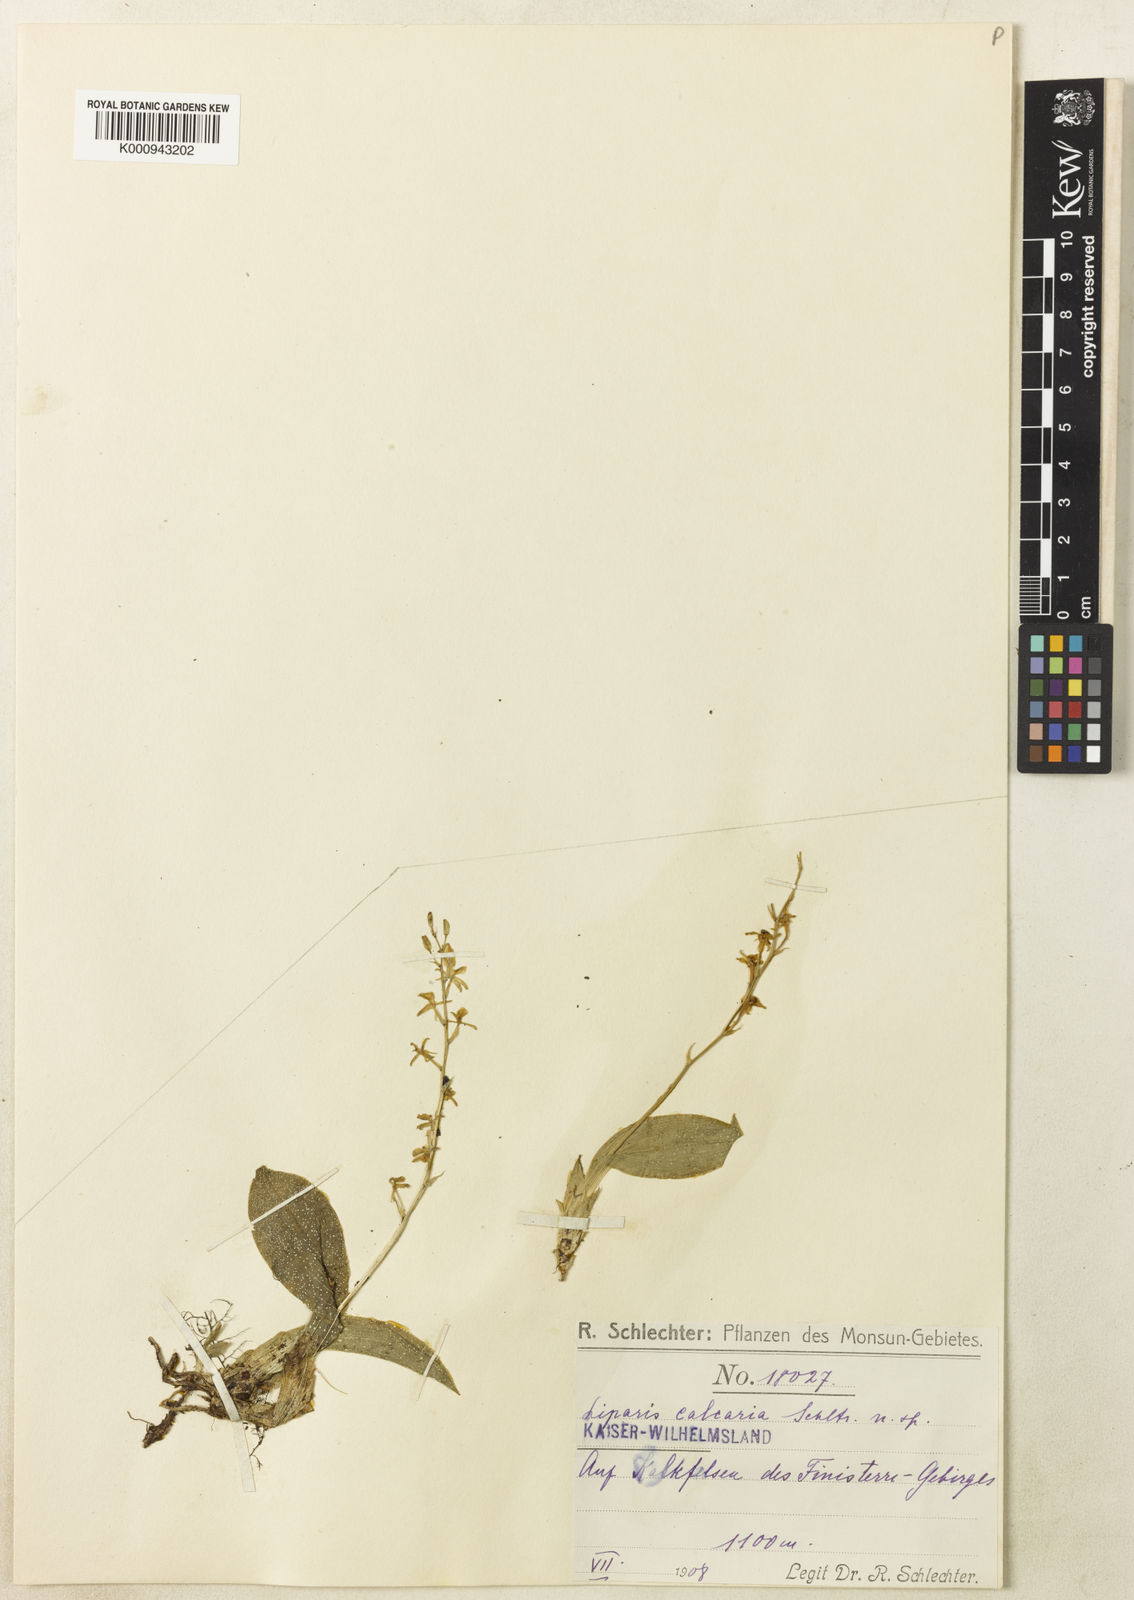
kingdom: Plantae
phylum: Tracheophyta
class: Liliopsida
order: Asparagales
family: Orchidaceae
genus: Liparis
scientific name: Liparis calcarea
